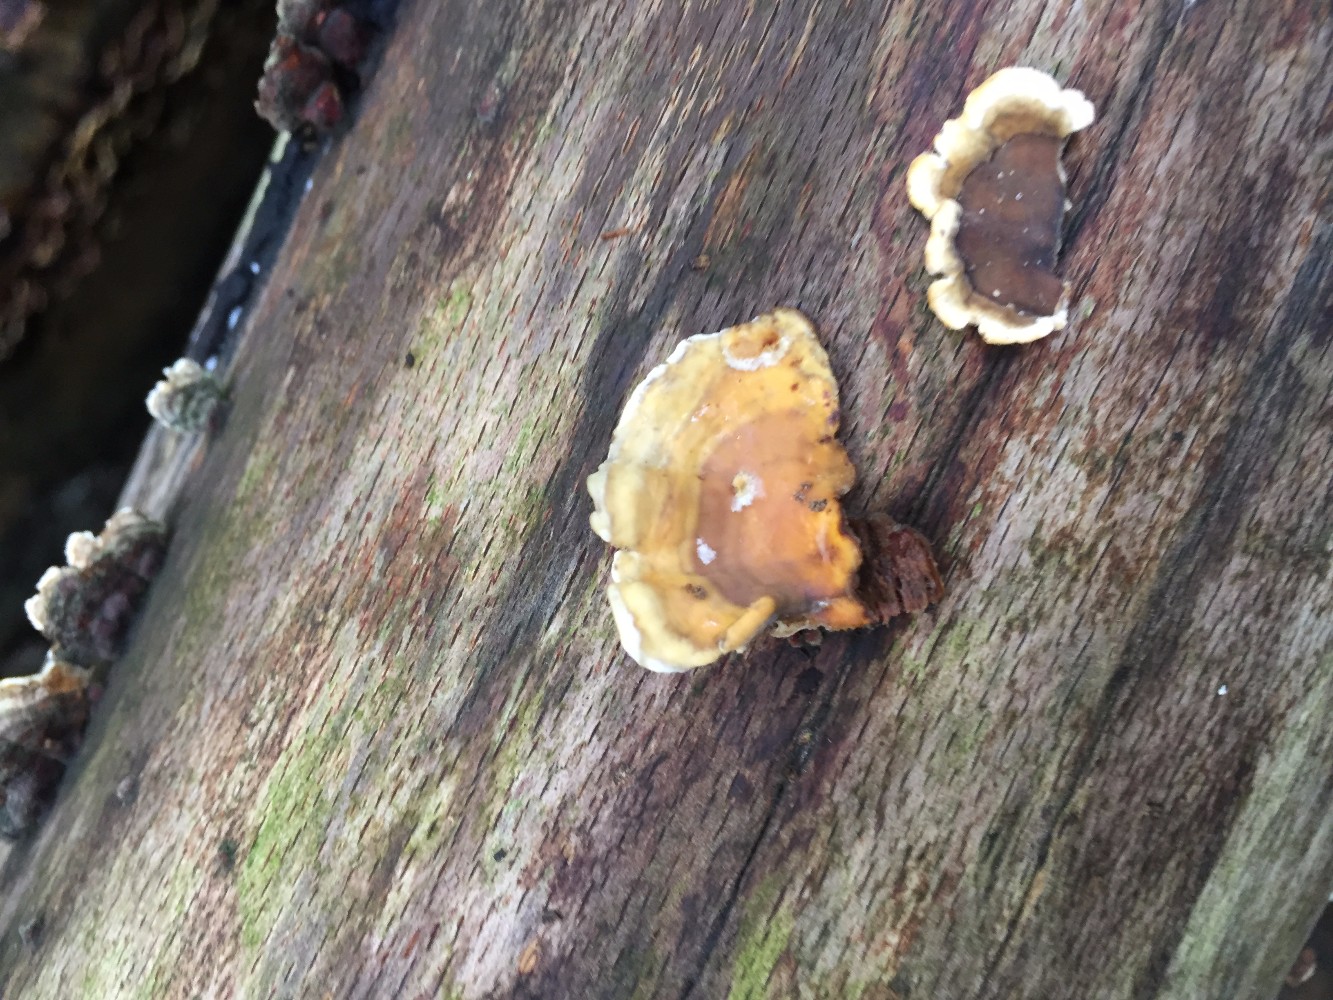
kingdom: Fungi
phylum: Basidiomycota
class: Agaricomycetes
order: Russulales
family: Stereaceae
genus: Stereum
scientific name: Stereum subtomentosum
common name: smuk lædersvamp
